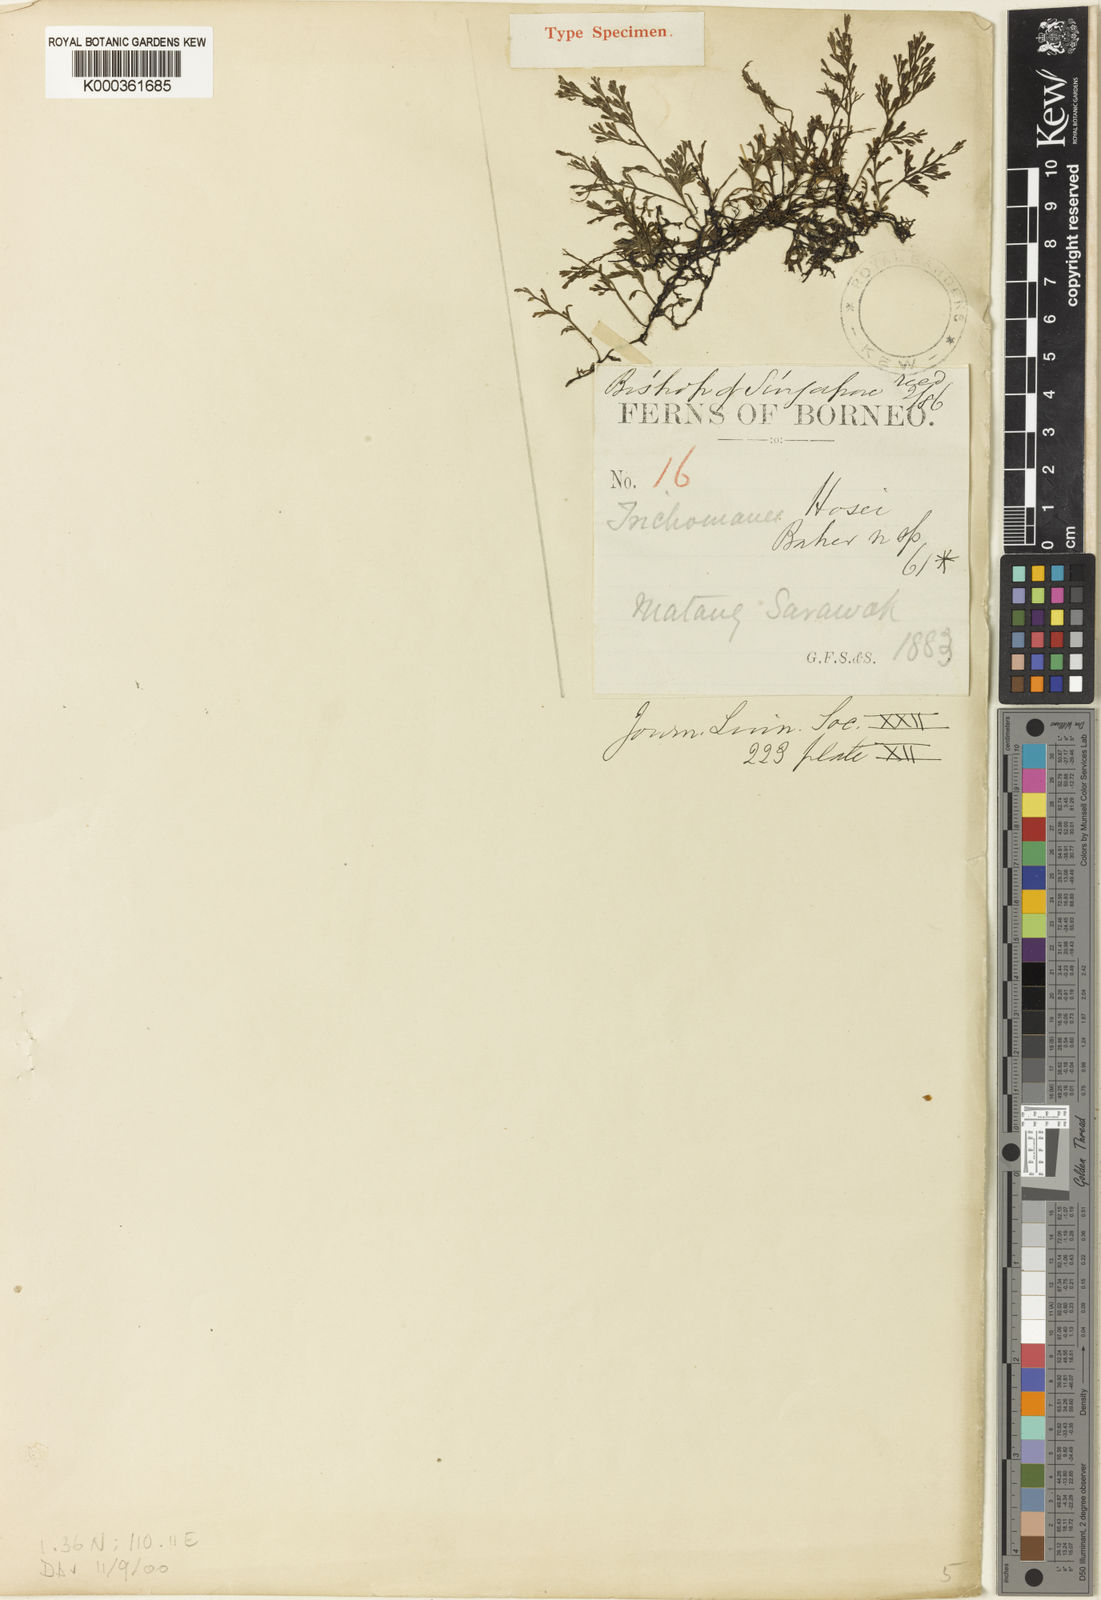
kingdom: Plantae
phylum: Tracheophyta
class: Polypodiopsida
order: Hymenophyllales
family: Hymenophyllaceae
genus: Trichomanes
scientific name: Trichomanes hosei
